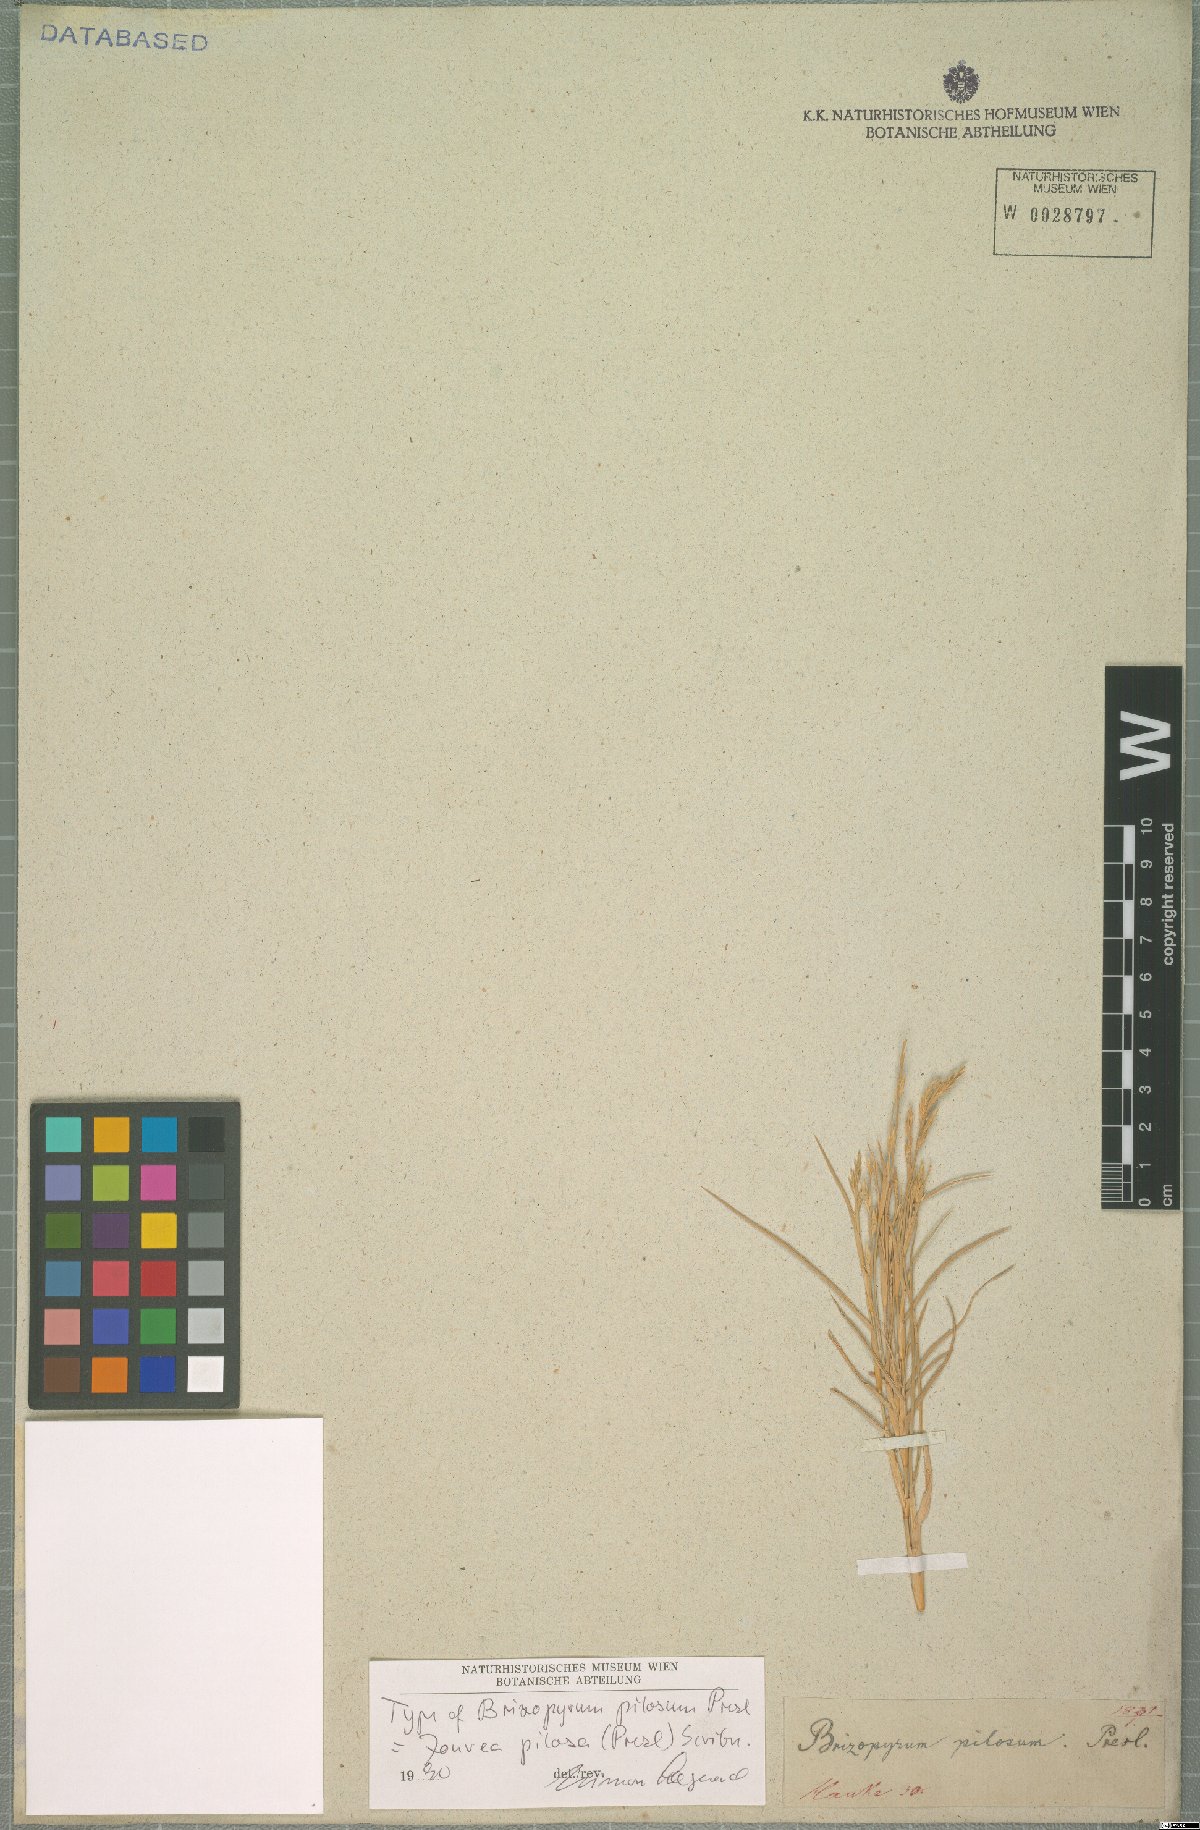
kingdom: Plantae
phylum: Tracheophyta
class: Liliopsida
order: Poales
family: Poaceae
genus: Jouvea
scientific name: Jouvea pilosa
